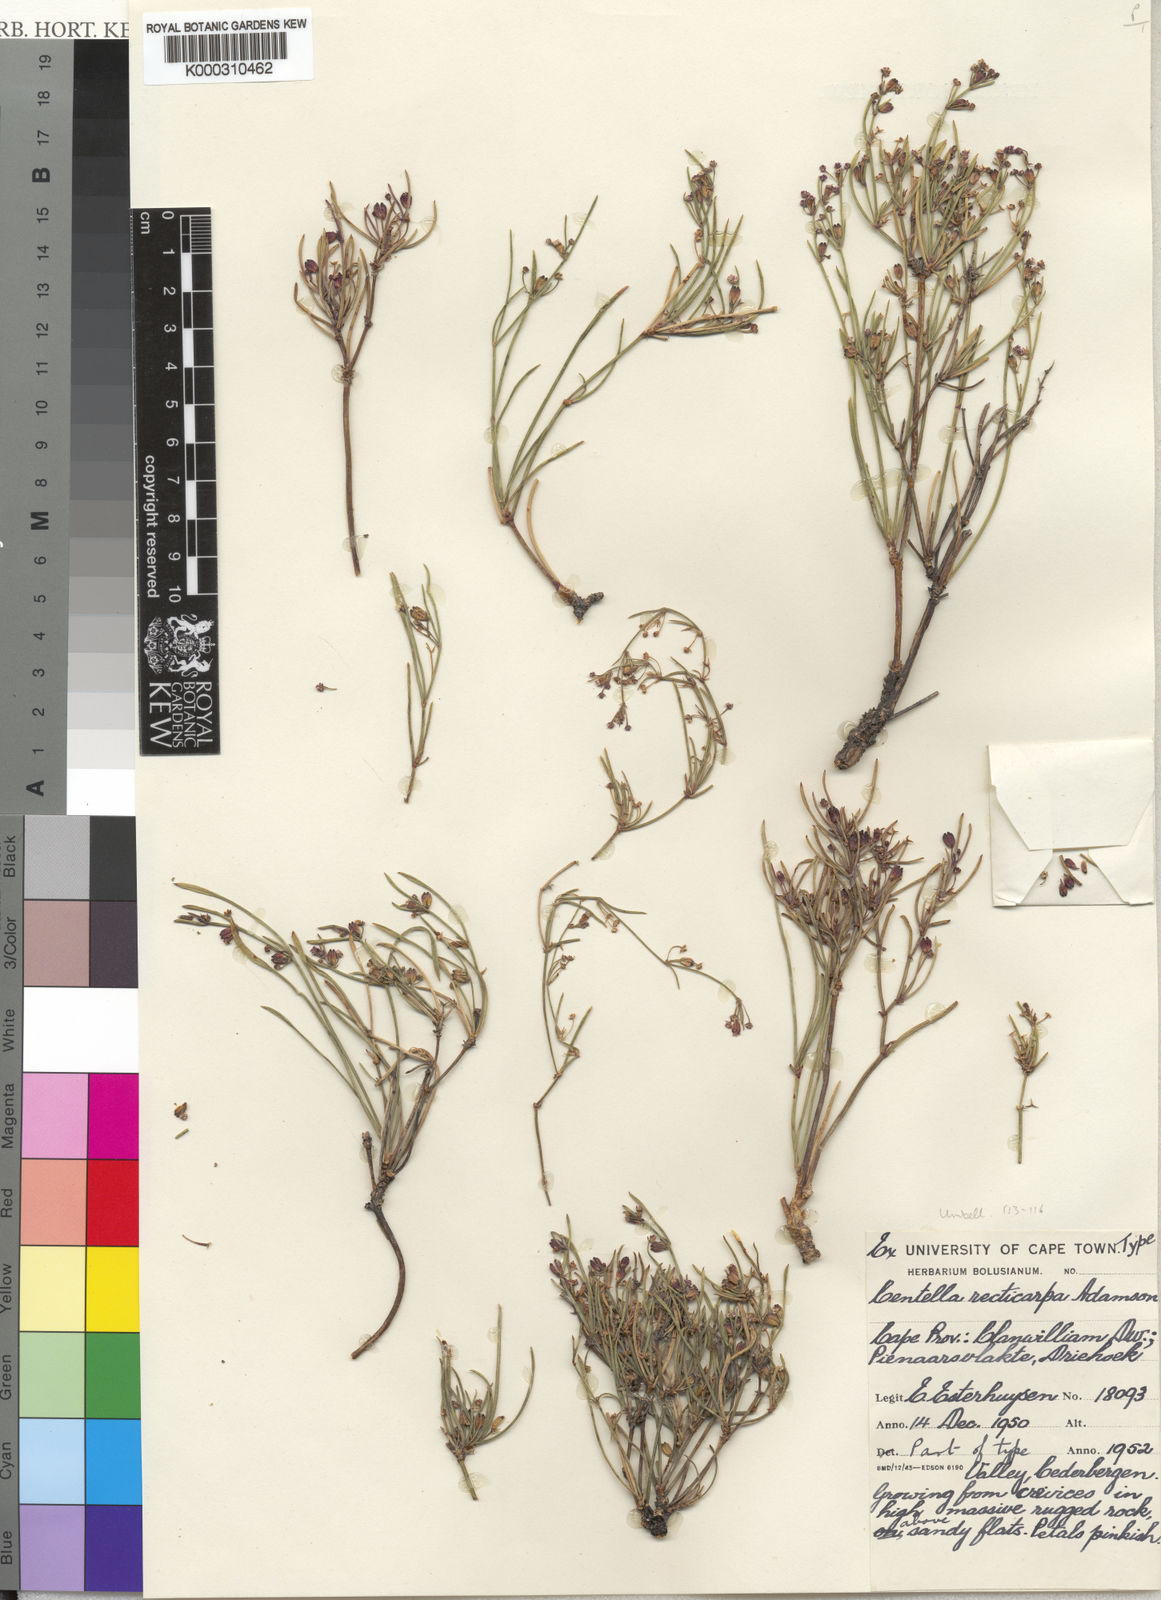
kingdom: Plantae
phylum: Tracheophyta
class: Magnoliopsida
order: Apiales
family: Apiaceae
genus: Centella
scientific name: Centella recticarpa
